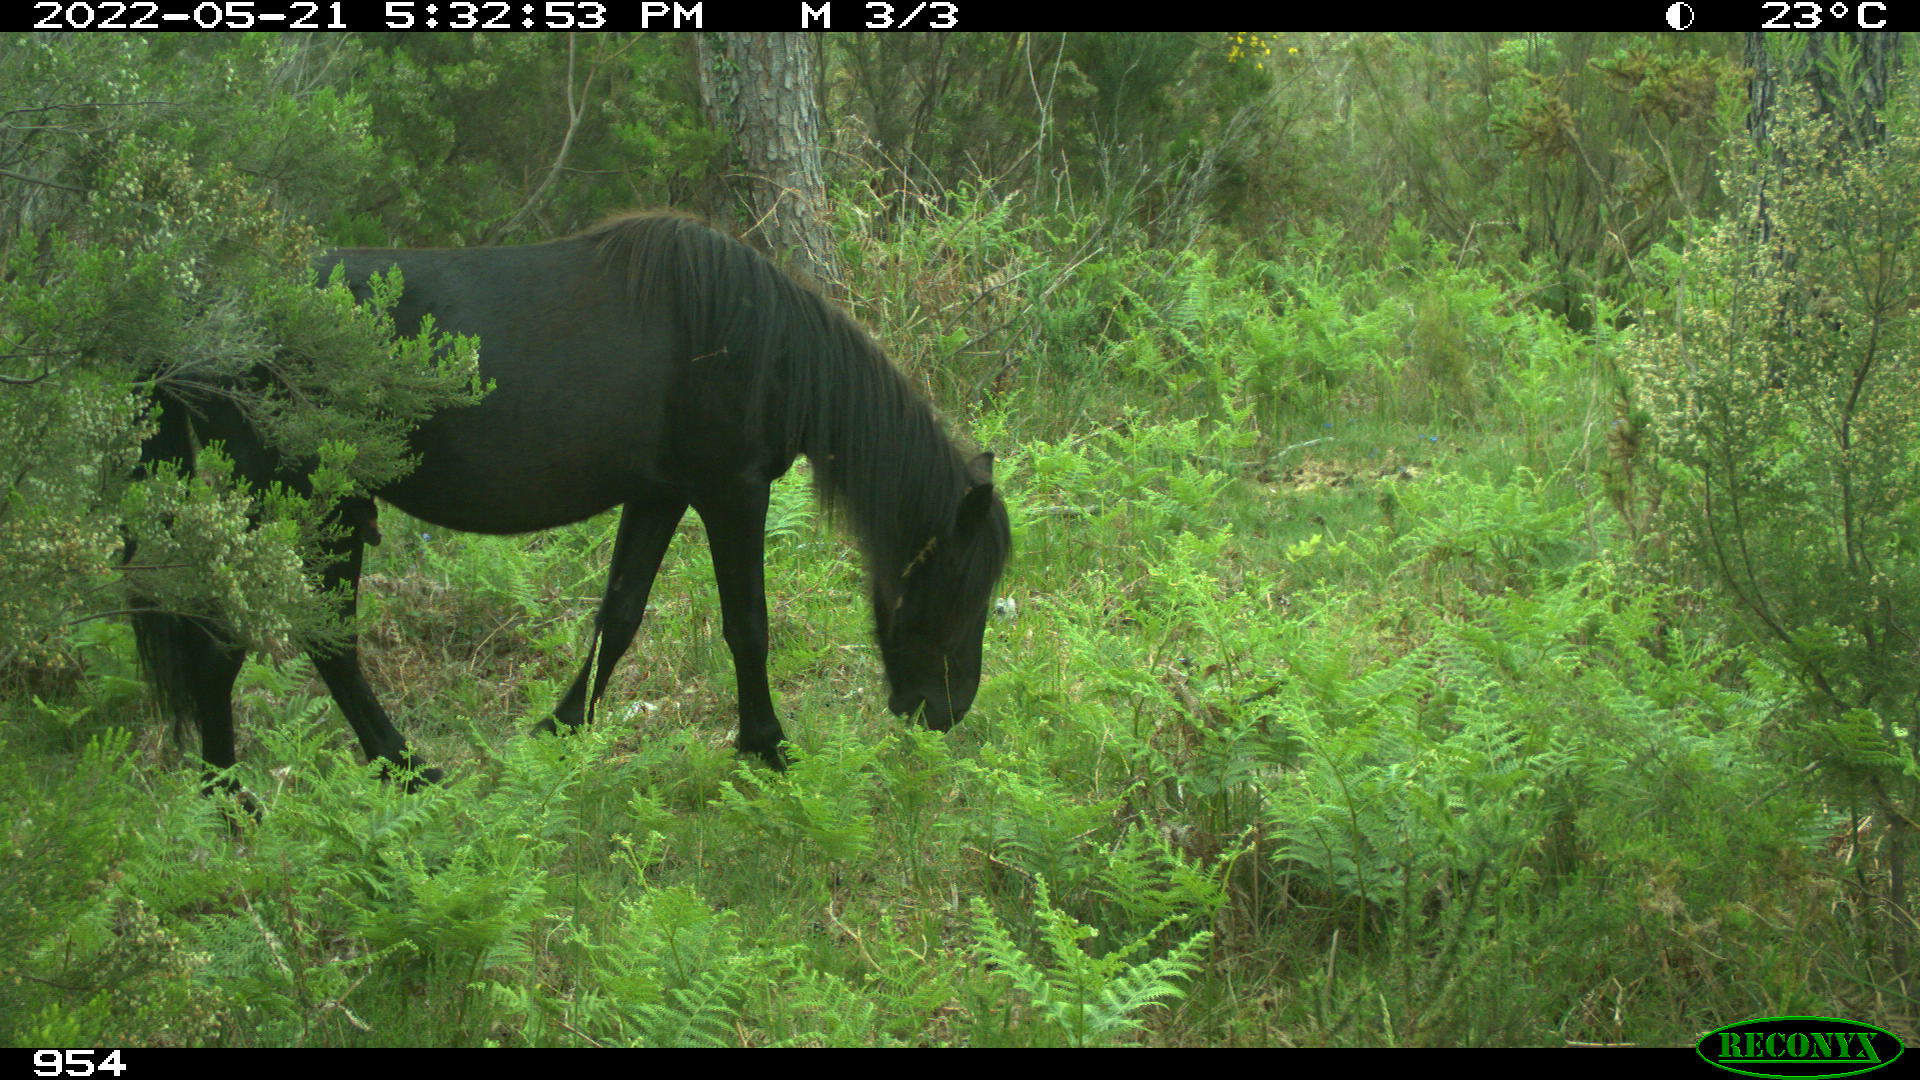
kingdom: Animalia
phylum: Chordata
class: Mammalia
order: Perissodactyla
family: Equidae
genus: Equus
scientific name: Equus caballus
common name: Horse
